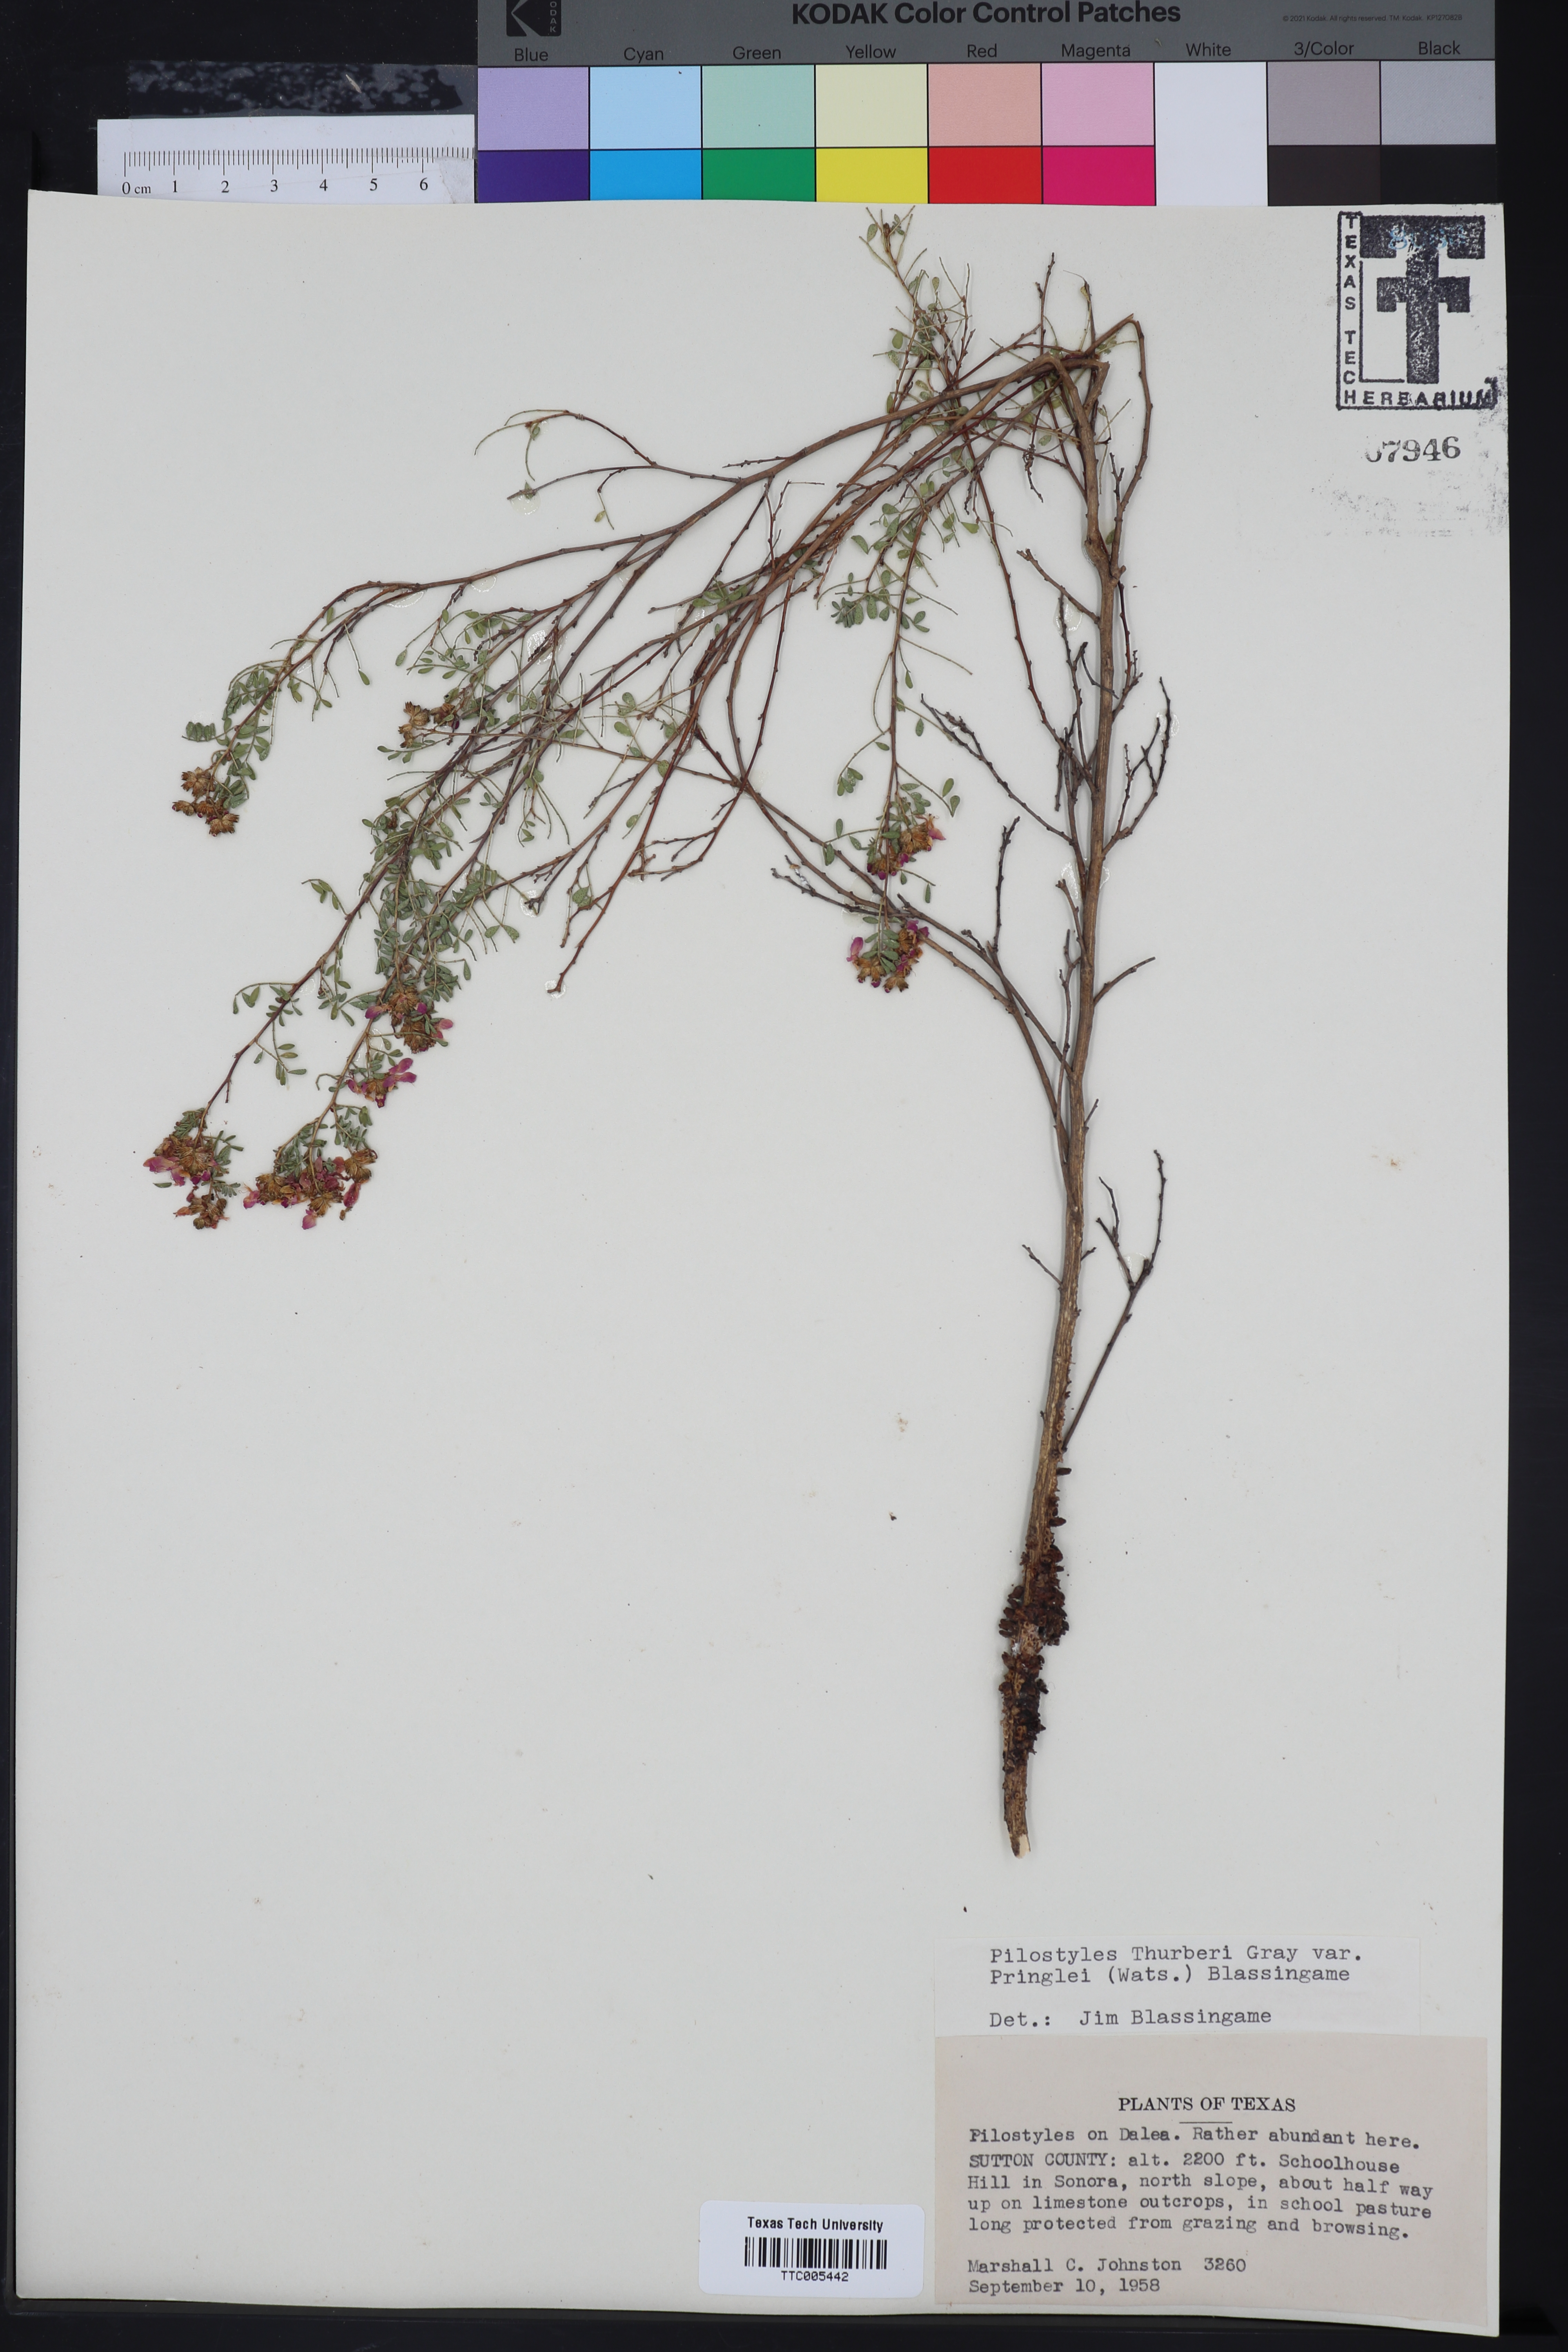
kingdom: Plantae
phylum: Tracheophyta
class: Magnoliopsida
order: Cucurbitales
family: Apodanthaceae
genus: Pilostyles
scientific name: Pilostyles thurberi
